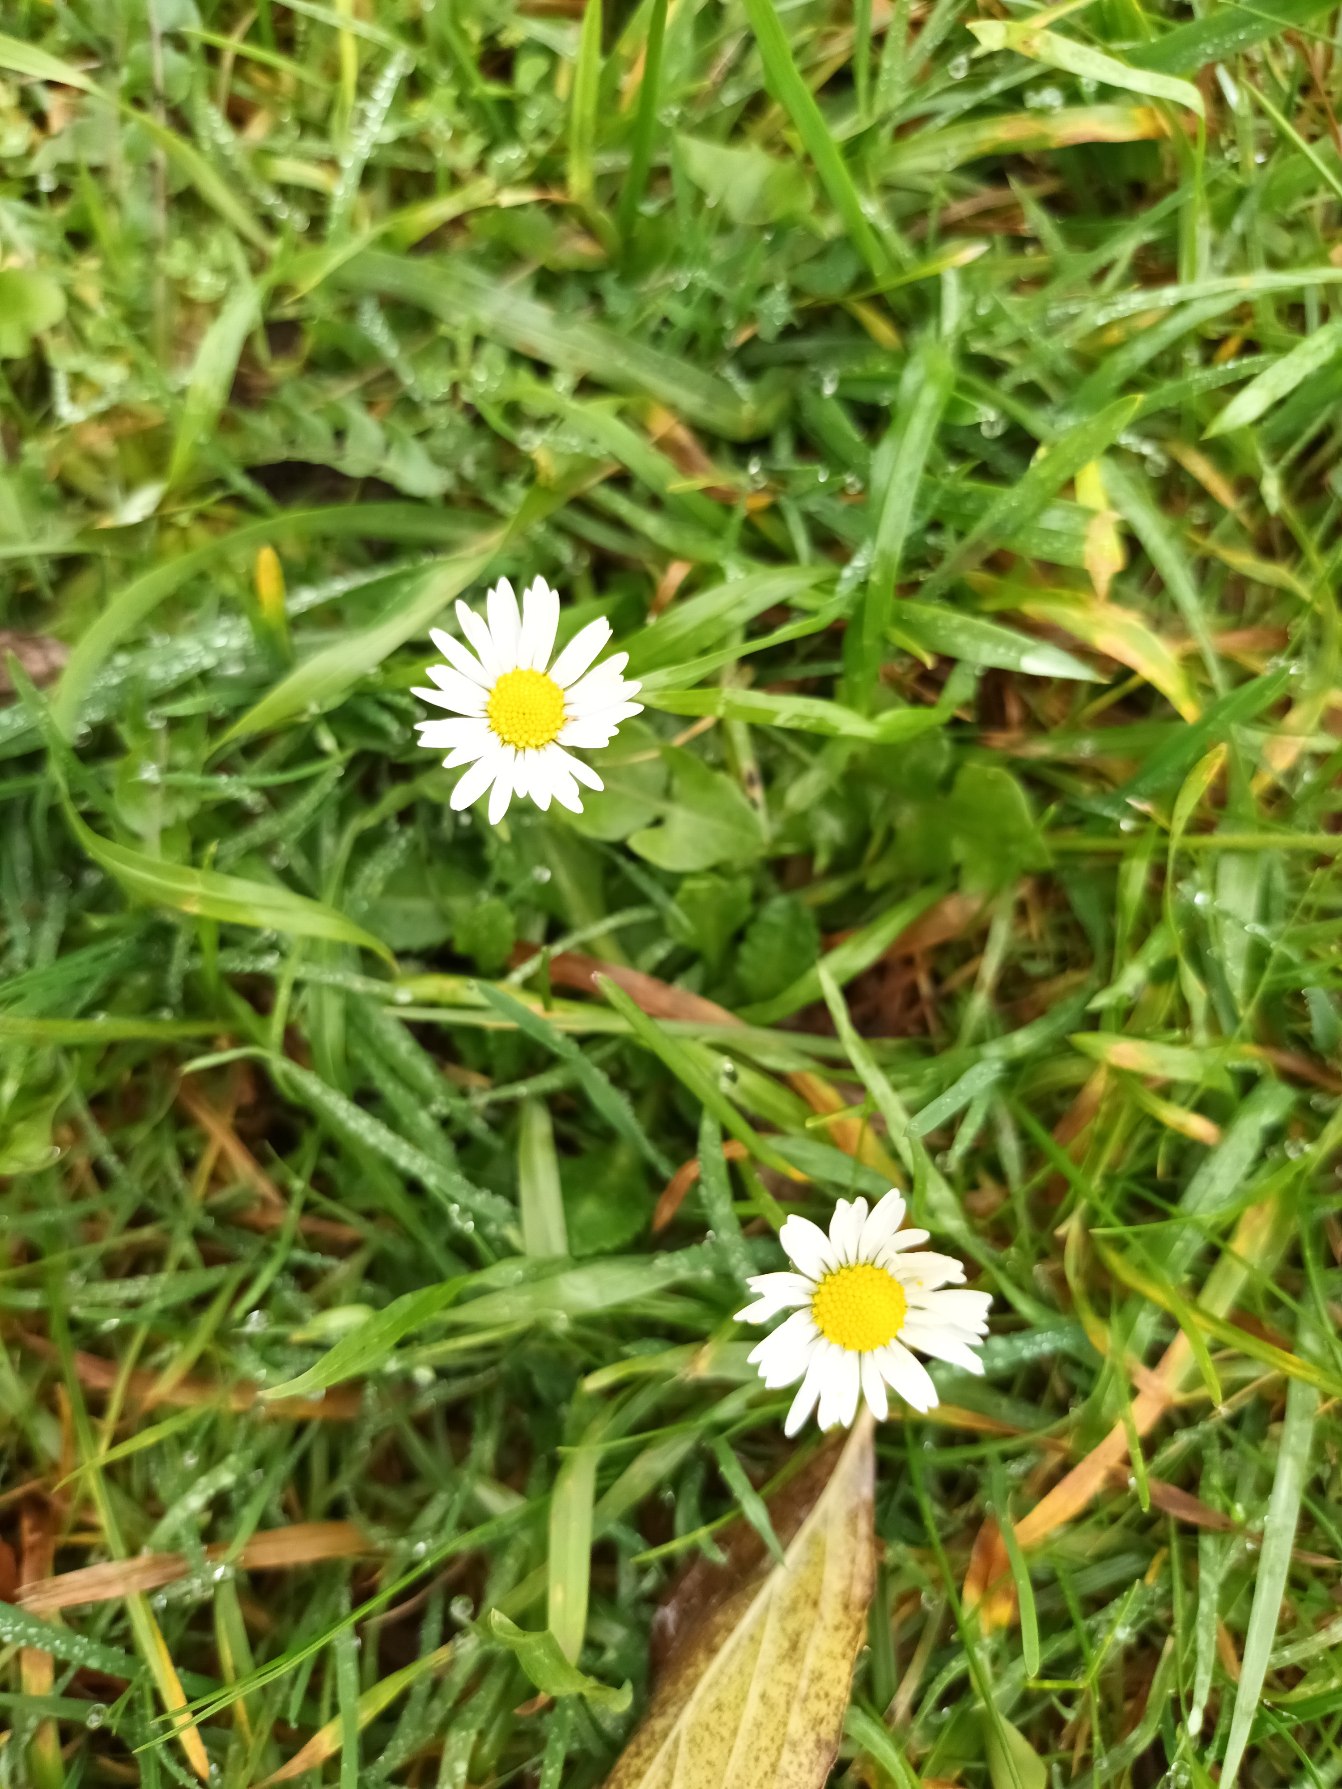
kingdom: Plantae
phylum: Tracheophyta
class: Magnoliopsida
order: Asterales
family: Asteraceae
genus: Bellis
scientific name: Bellis perennis
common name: Tusindfryd
